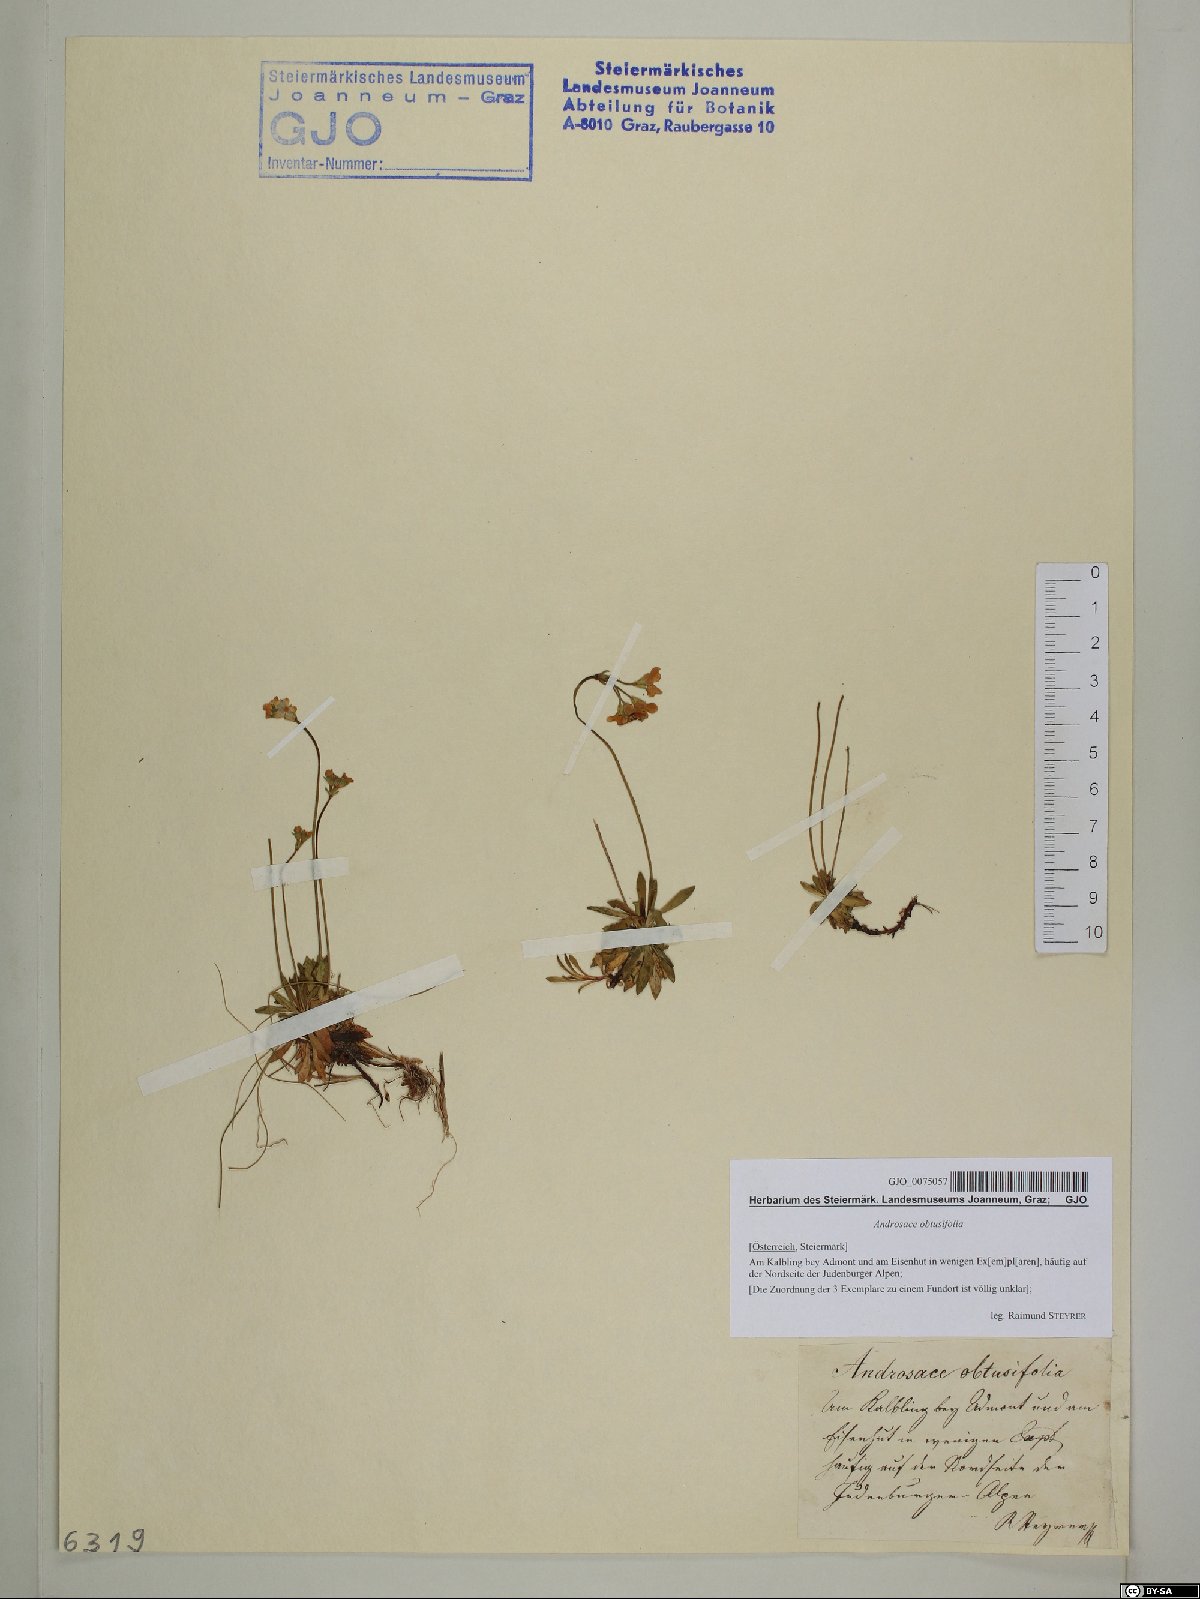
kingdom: Plantae
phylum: Tracheophyta
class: Magnoliopsida
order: Ericales
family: Primulaceae
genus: Androsace
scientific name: Androsace obtusifolia
